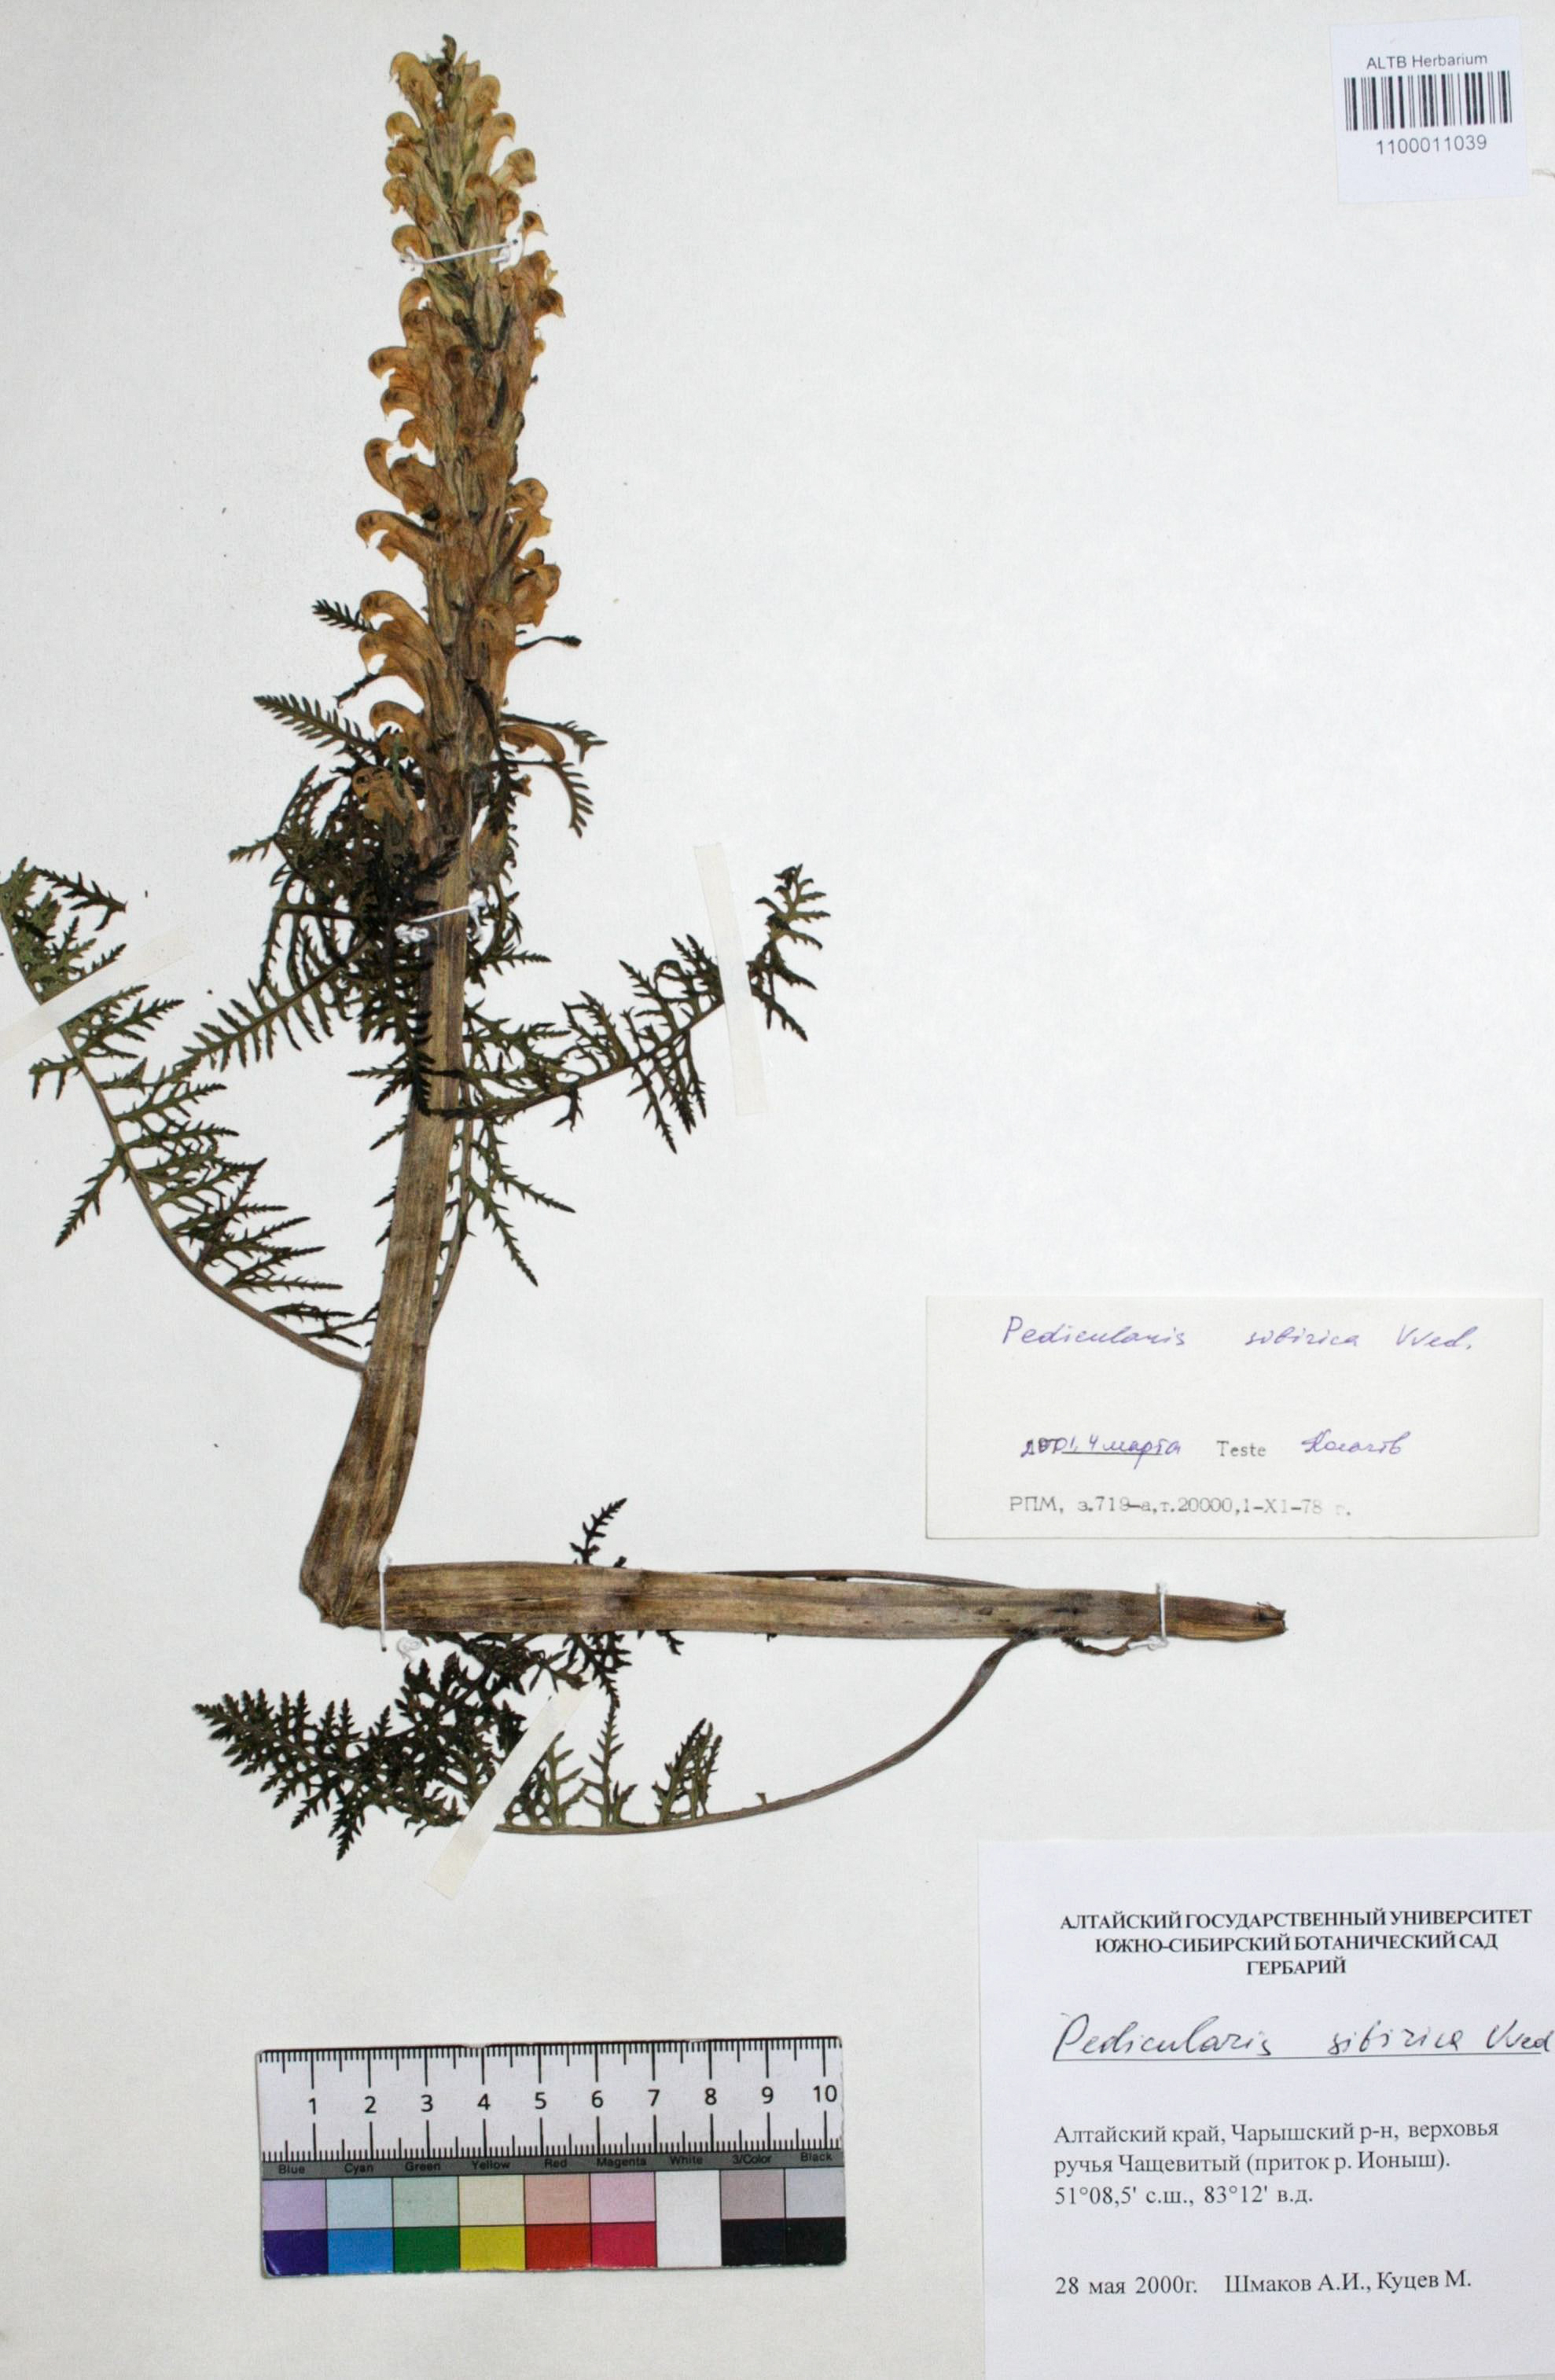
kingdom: Plantae
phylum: Tracheophyta
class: Magnoliopsida
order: Lamiales
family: Orobanchaceae
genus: Pedicularis
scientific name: Pedicularis sibirica
